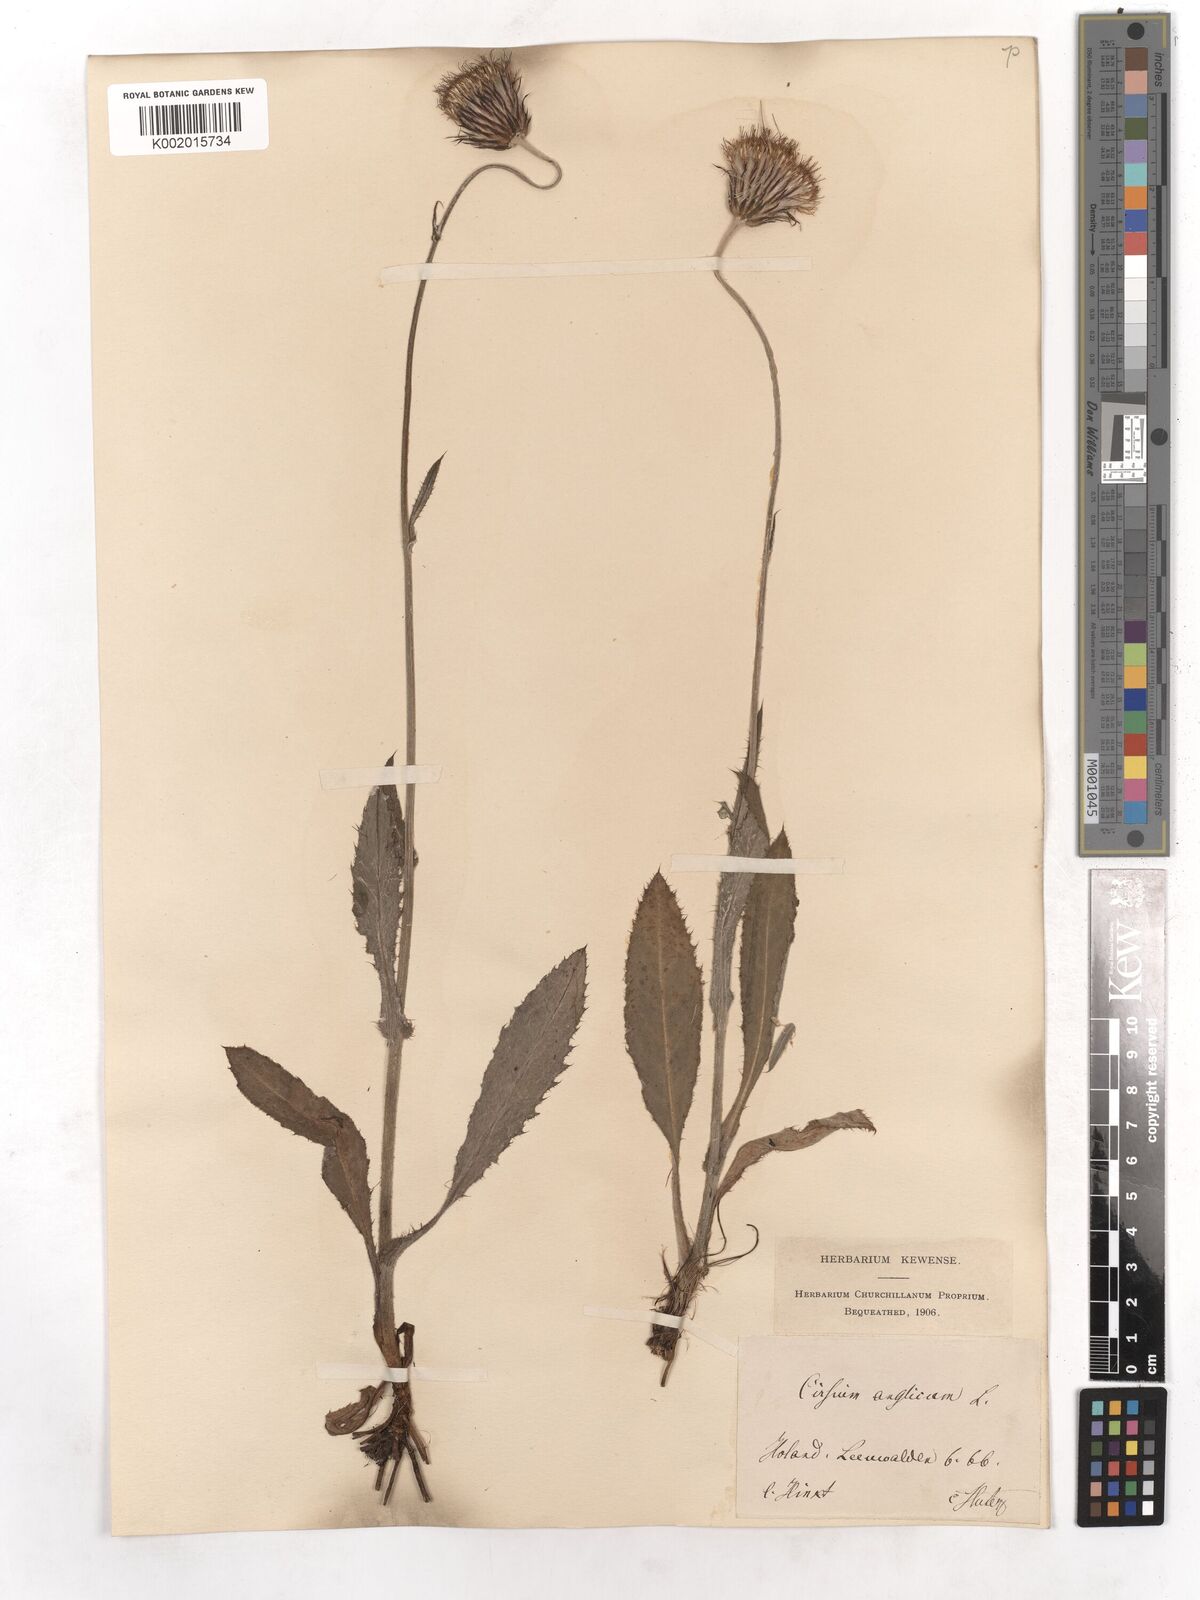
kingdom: Plantae
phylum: Tracheophyta
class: Magnoliopsida
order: Asterales
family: Asteraceae
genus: Cirsium
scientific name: Cirsium dissectum
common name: Meadow thistle
